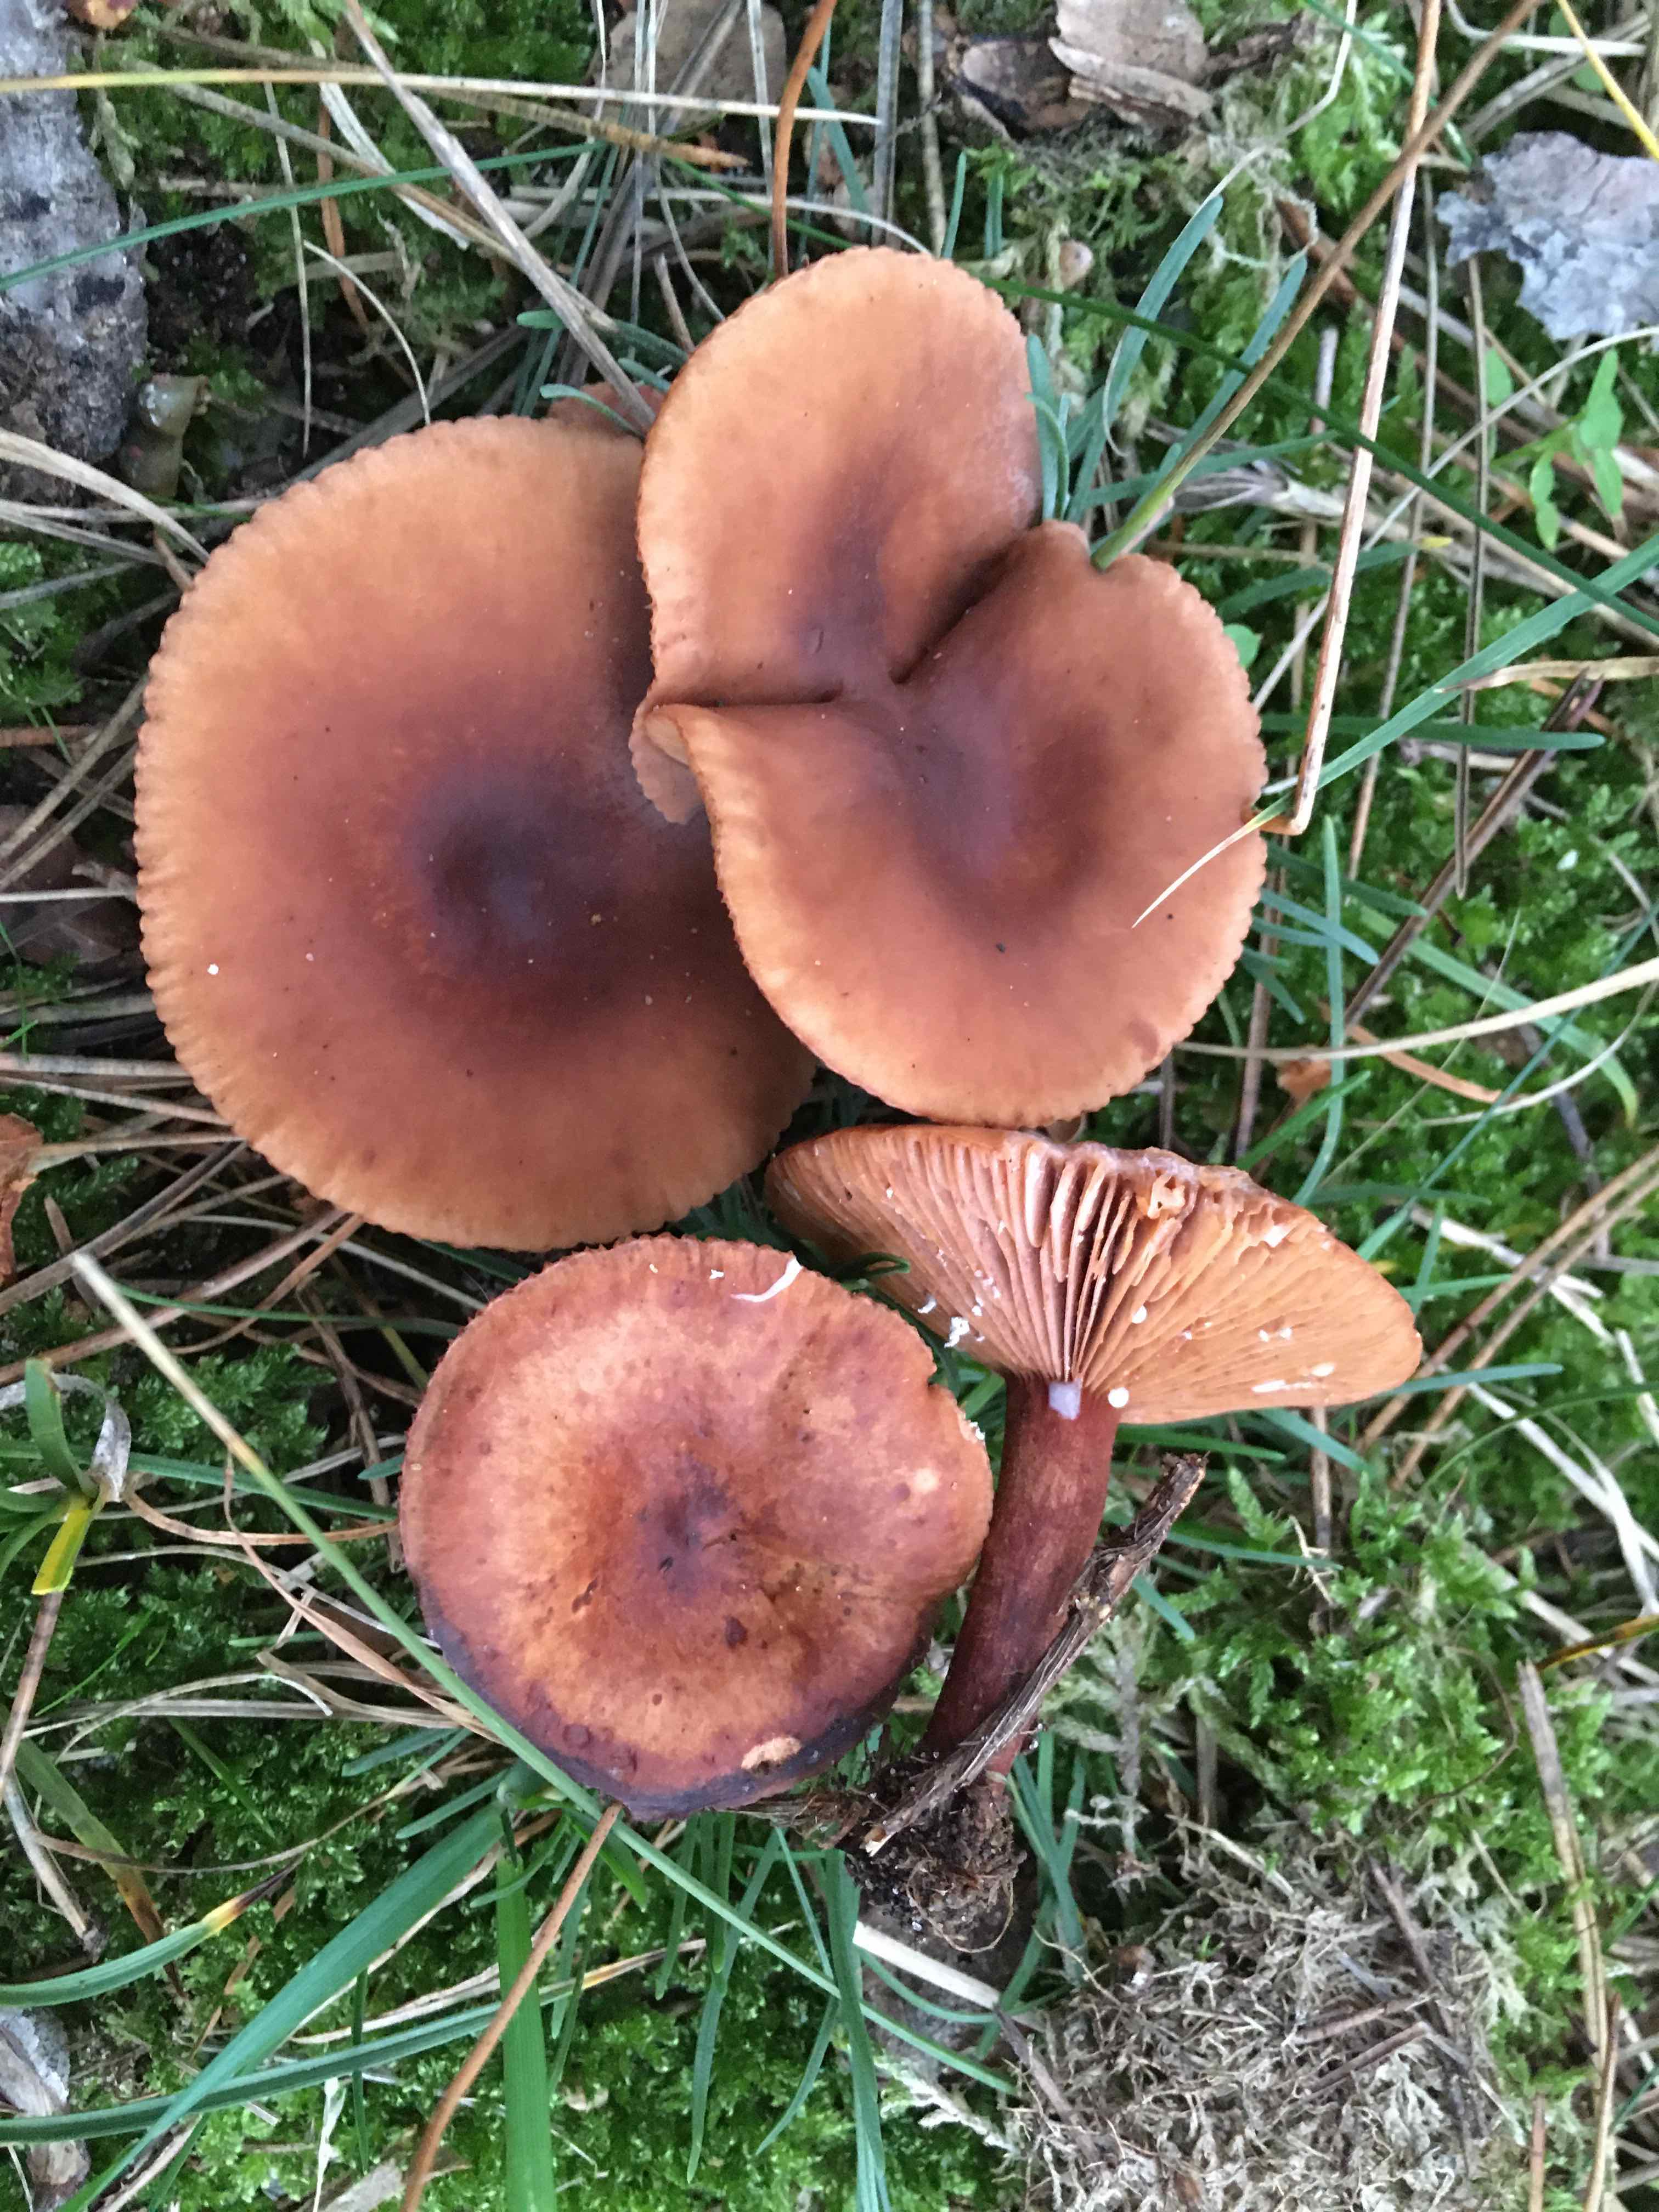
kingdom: Fungi
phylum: Basidiomycota
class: Agaricomycetes
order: Russulales
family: Russulaceae
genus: Lactarius
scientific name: Lactarius camphoratus
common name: kamfer-mælkehat
